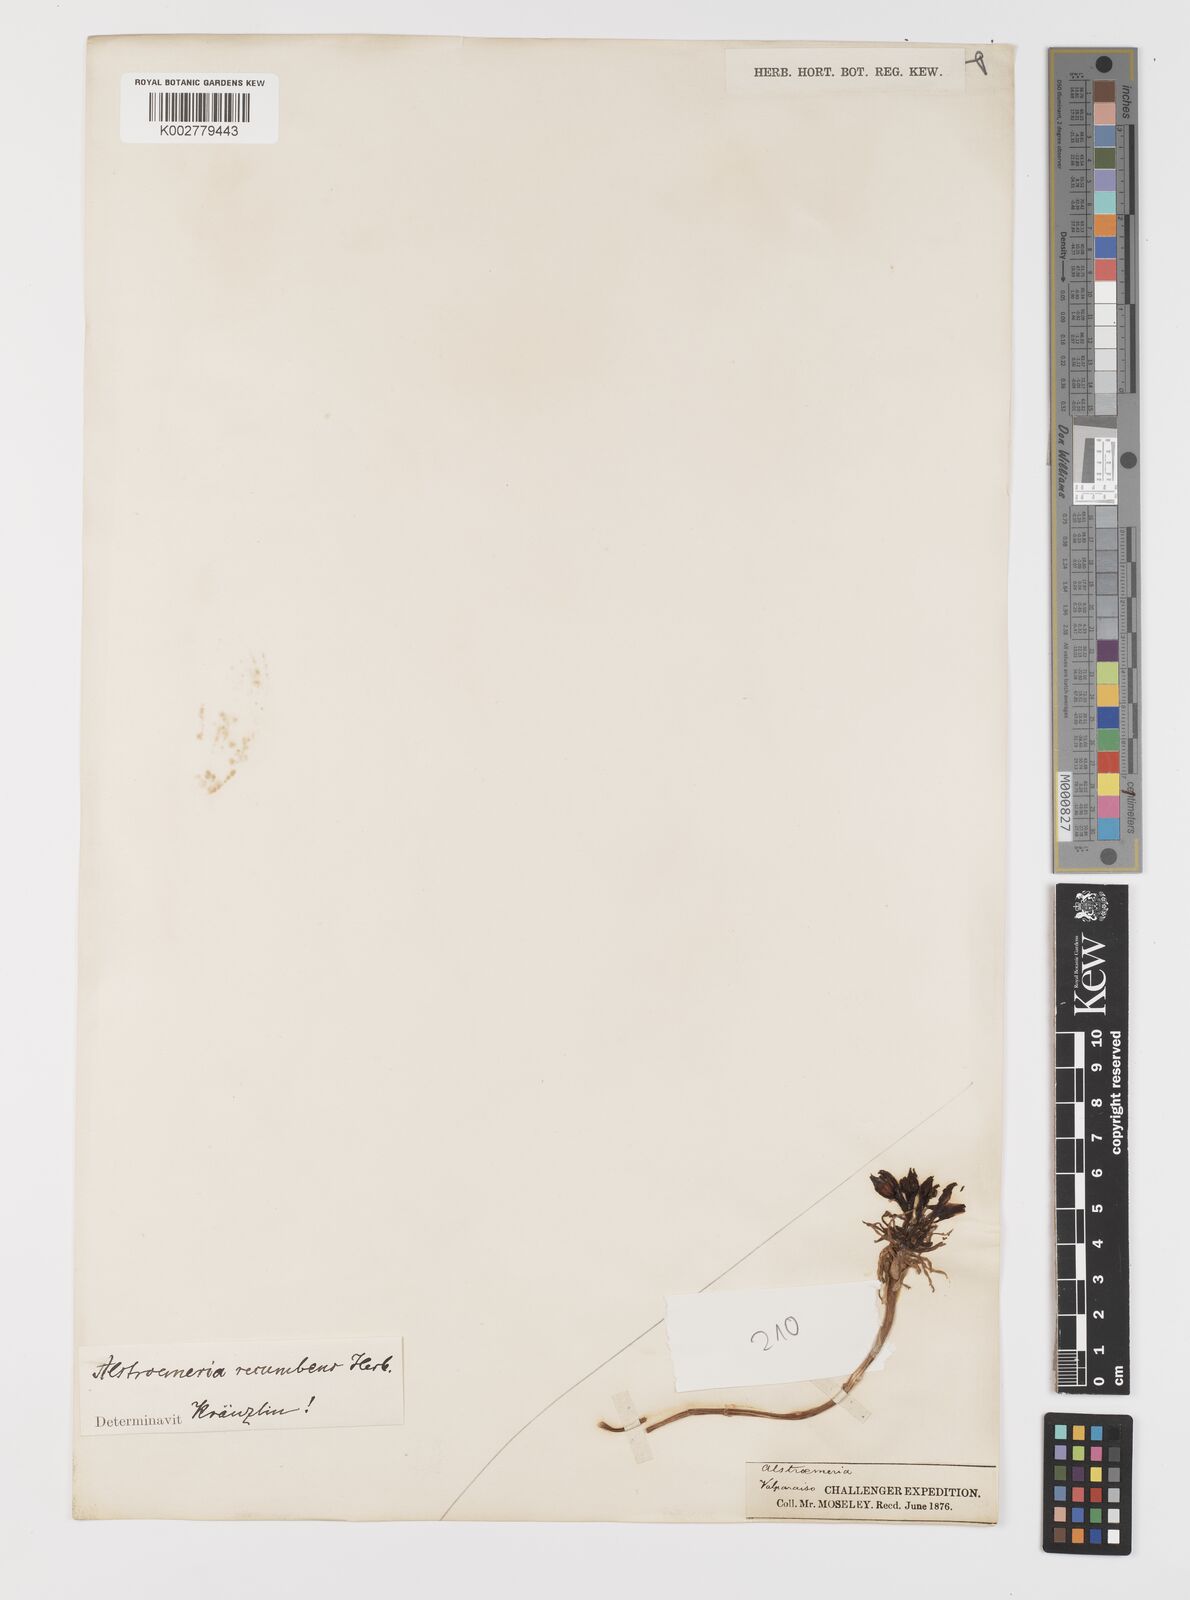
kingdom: Plantae
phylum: Tracheophyta
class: Liliopsida
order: Liliales
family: Alstroemeriaceae
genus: Alstroemeria
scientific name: Alstroemeria recumbens
